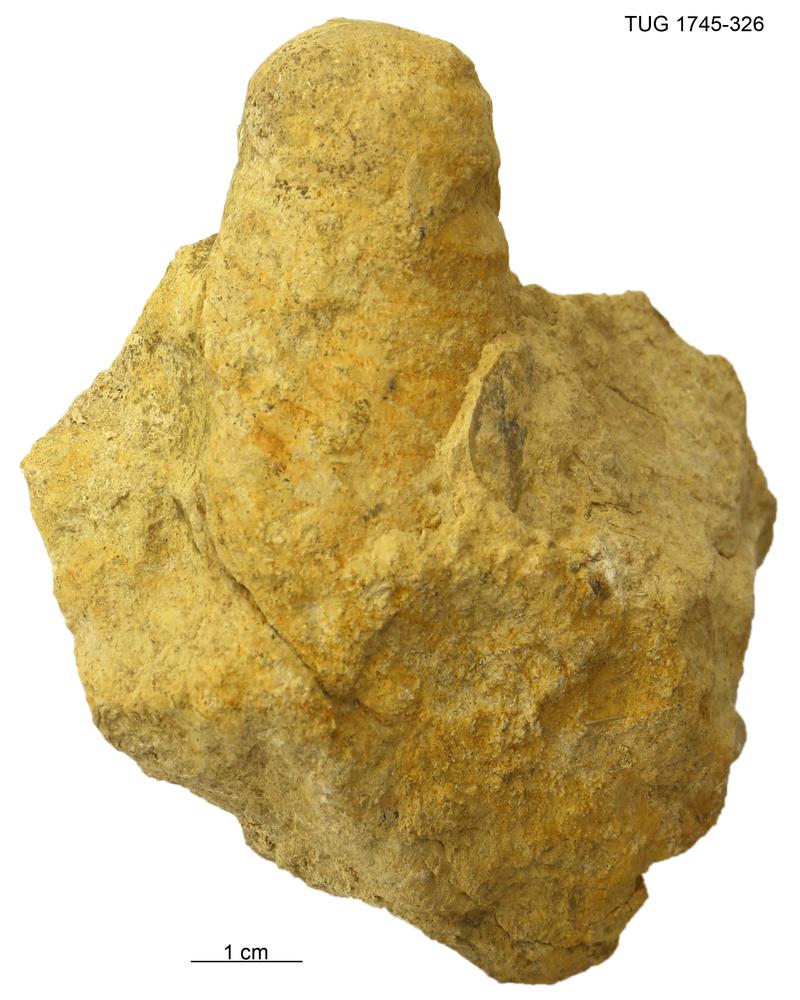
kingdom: Animalia
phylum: Mollusca
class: Cephalopoda
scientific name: Cephalopoda
